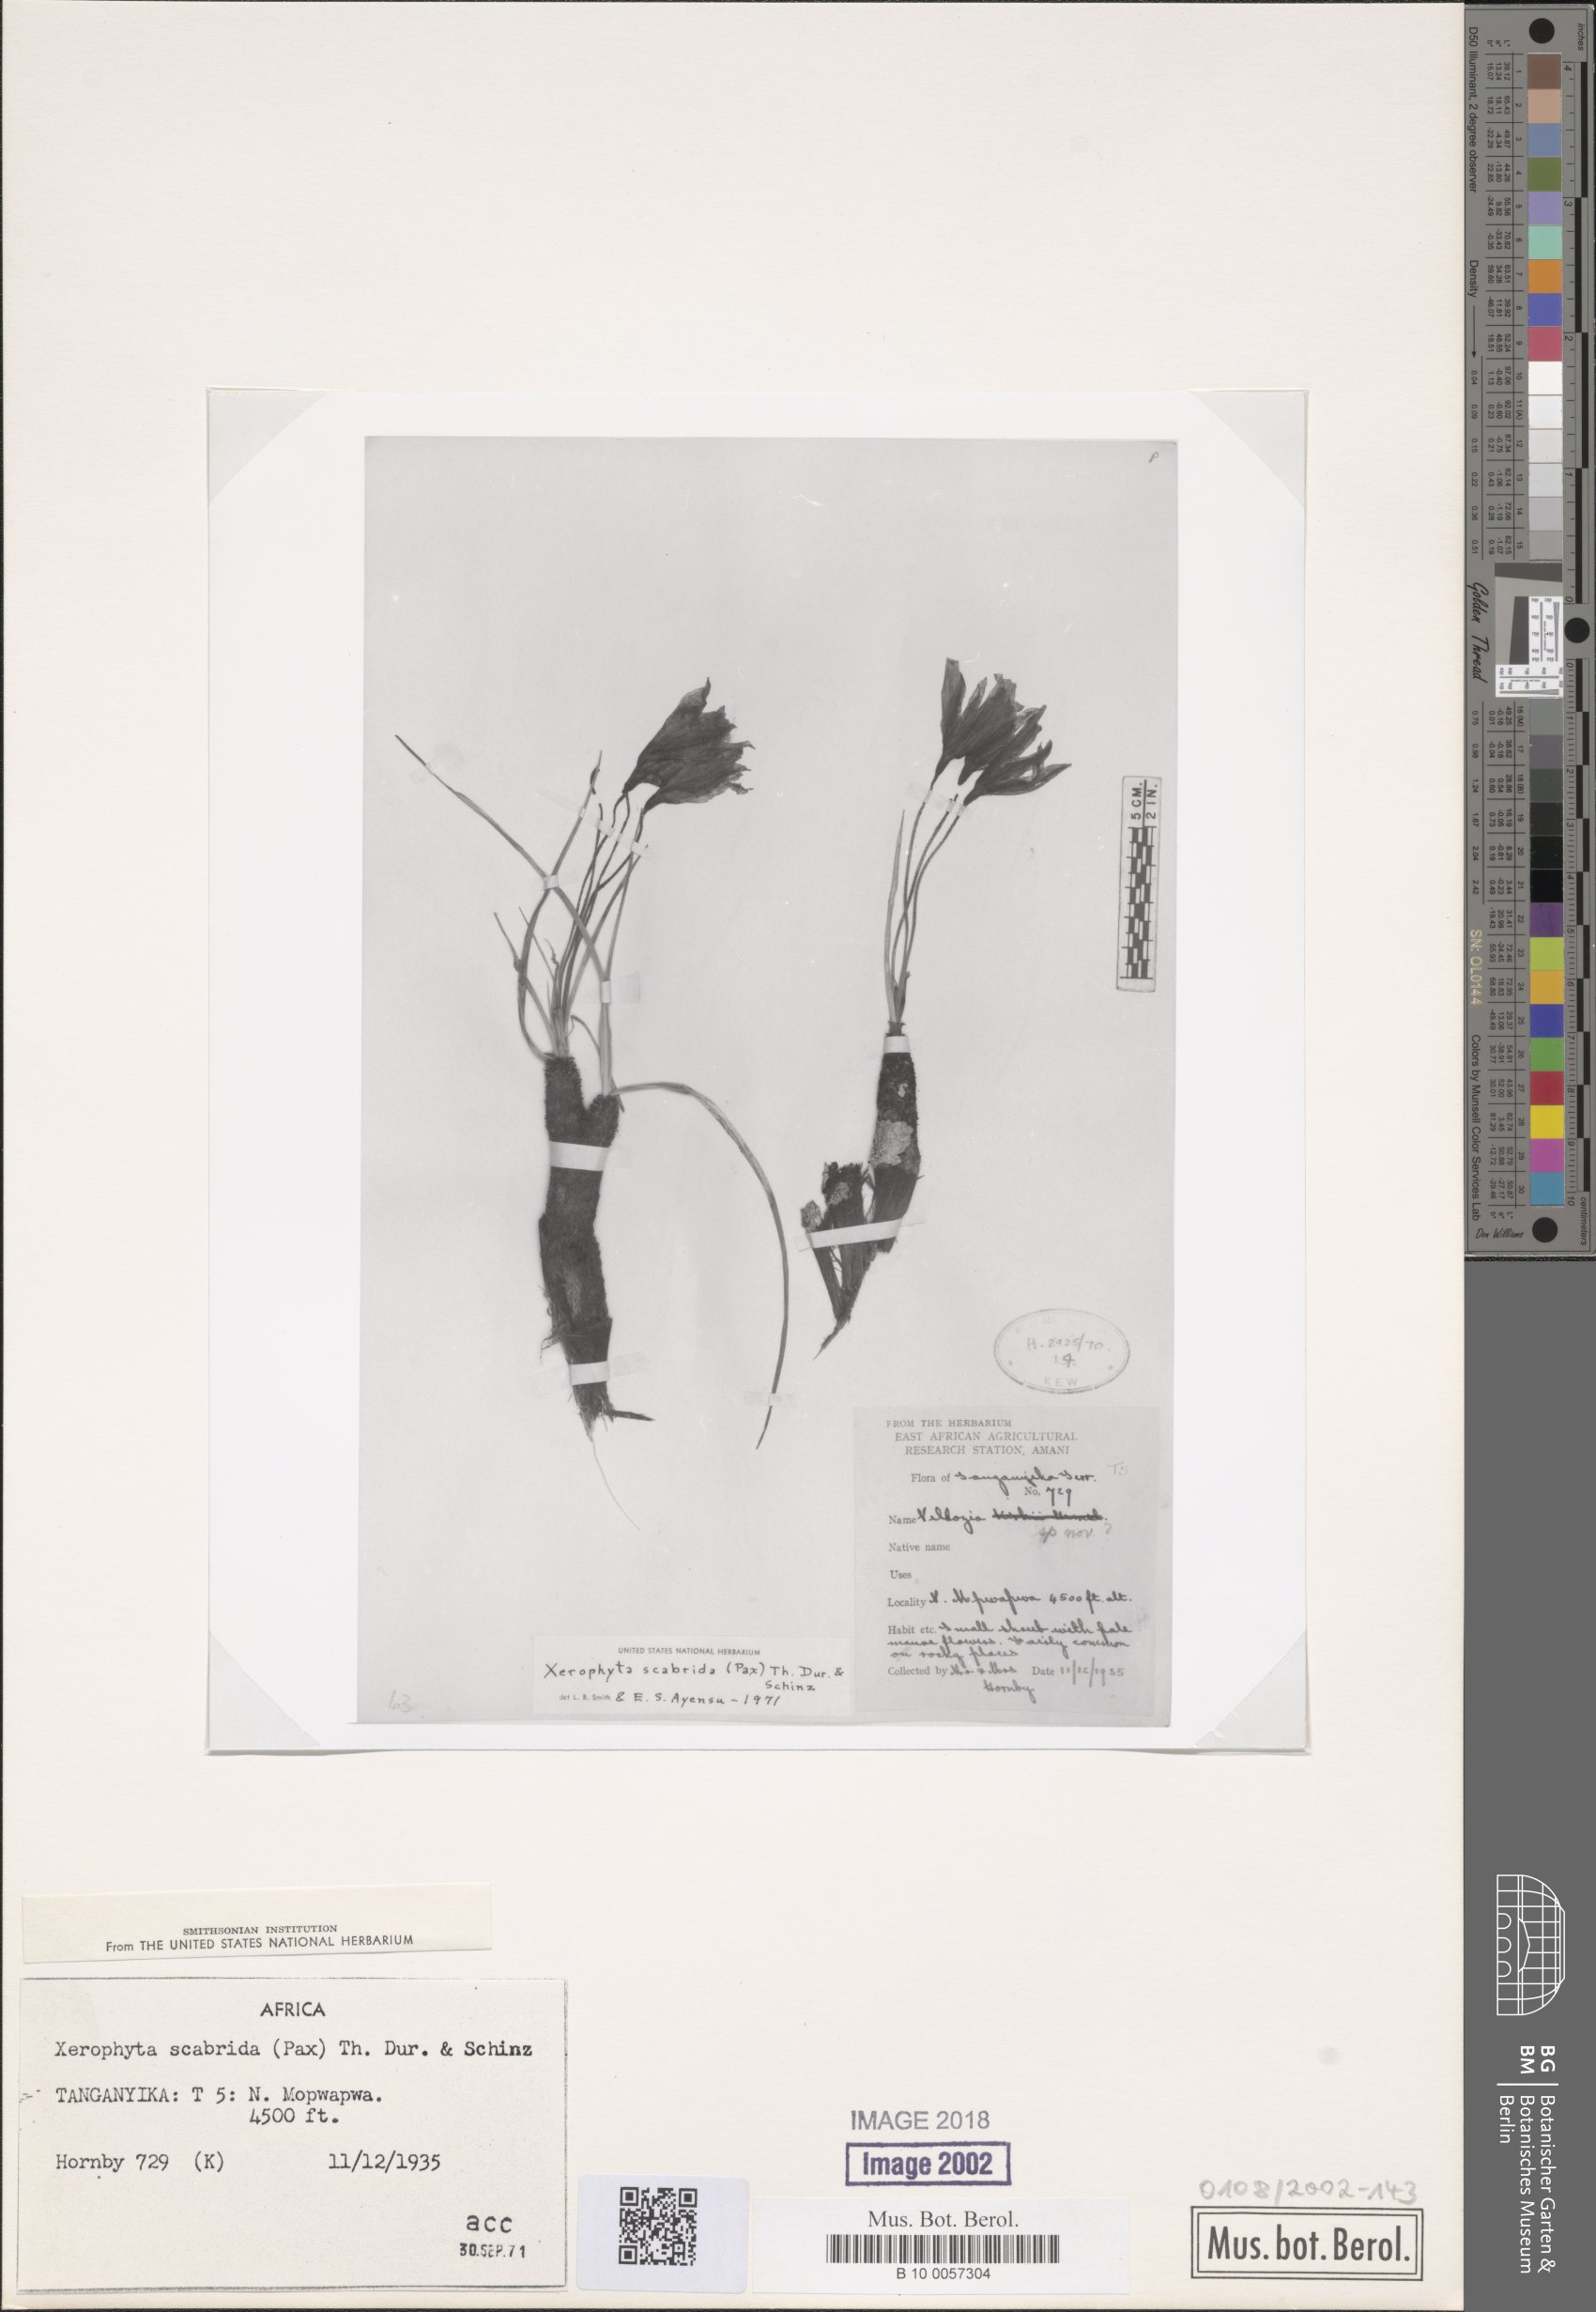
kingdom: Plantae
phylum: Tracheophyta
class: Liliopsida
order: Pandanales
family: Velloziaceae
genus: Xerophyta
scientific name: Xerophyta scabrida
